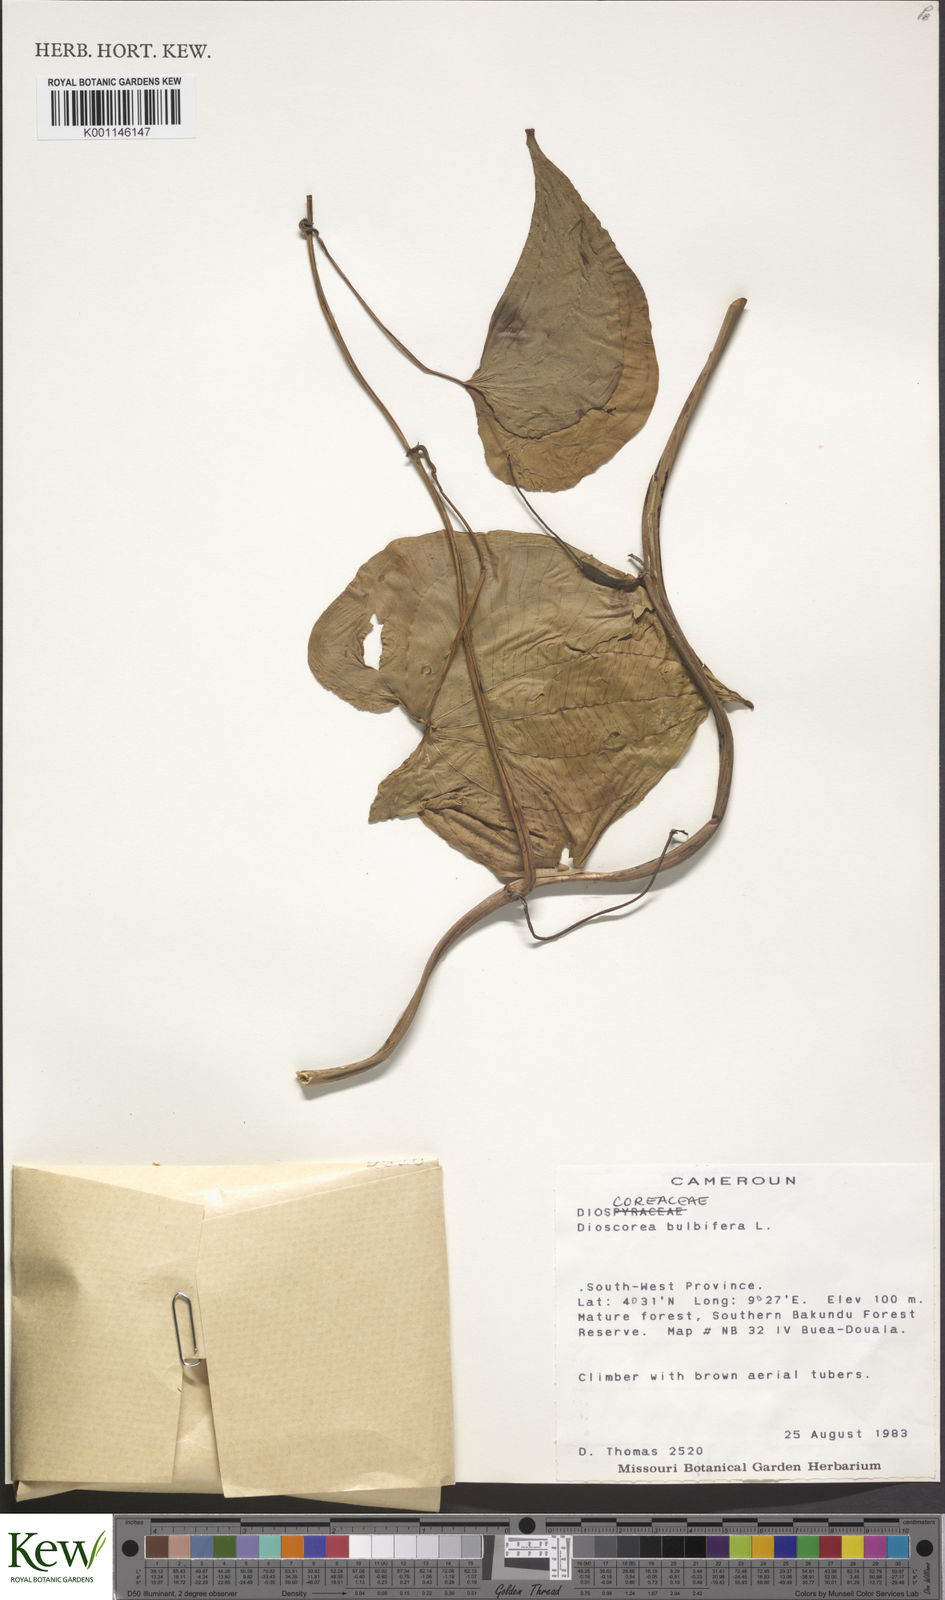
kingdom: Plantae
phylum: Tracheophyta
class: Liliopsida
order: Dioscoreales
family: Dioscoreaceae
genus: Dioscorea
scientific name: Dioscorea bulbifera
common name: Air yam
